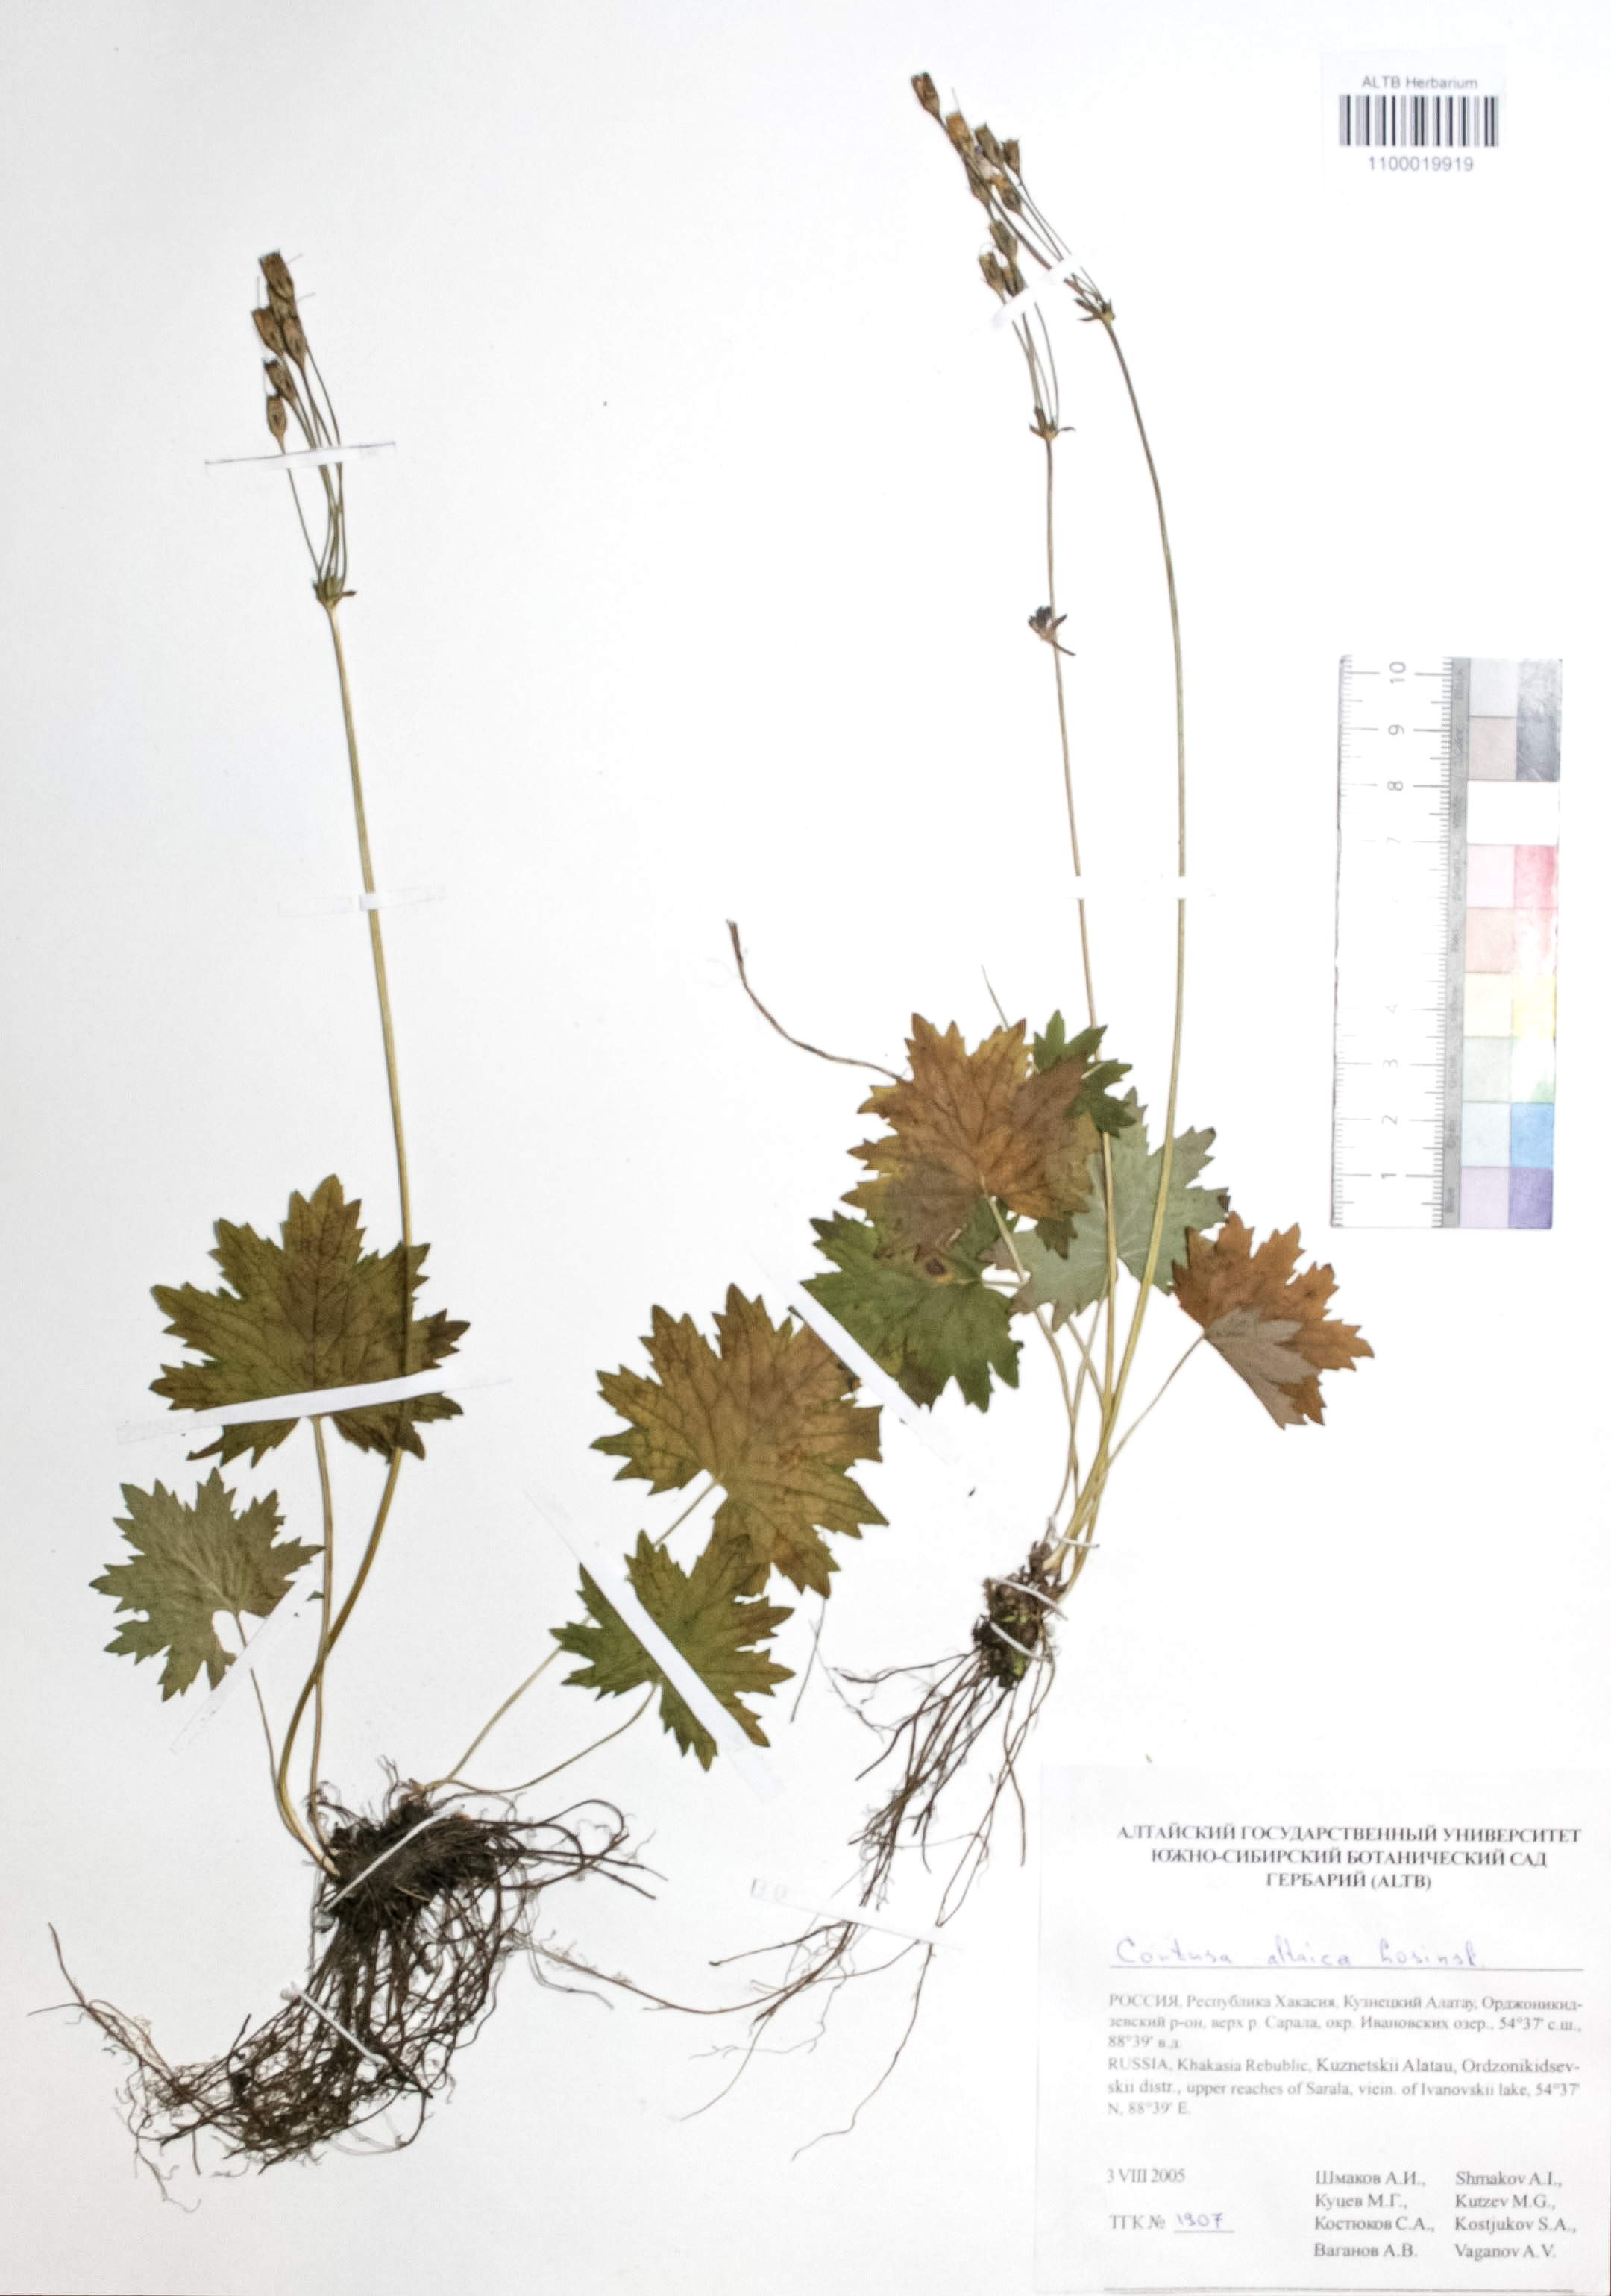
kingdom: Plantae
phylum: Tracheophyta
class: Magnoliopsida
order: Ericales
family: Primulaceae
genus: Primula
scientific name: Primula matthioli
